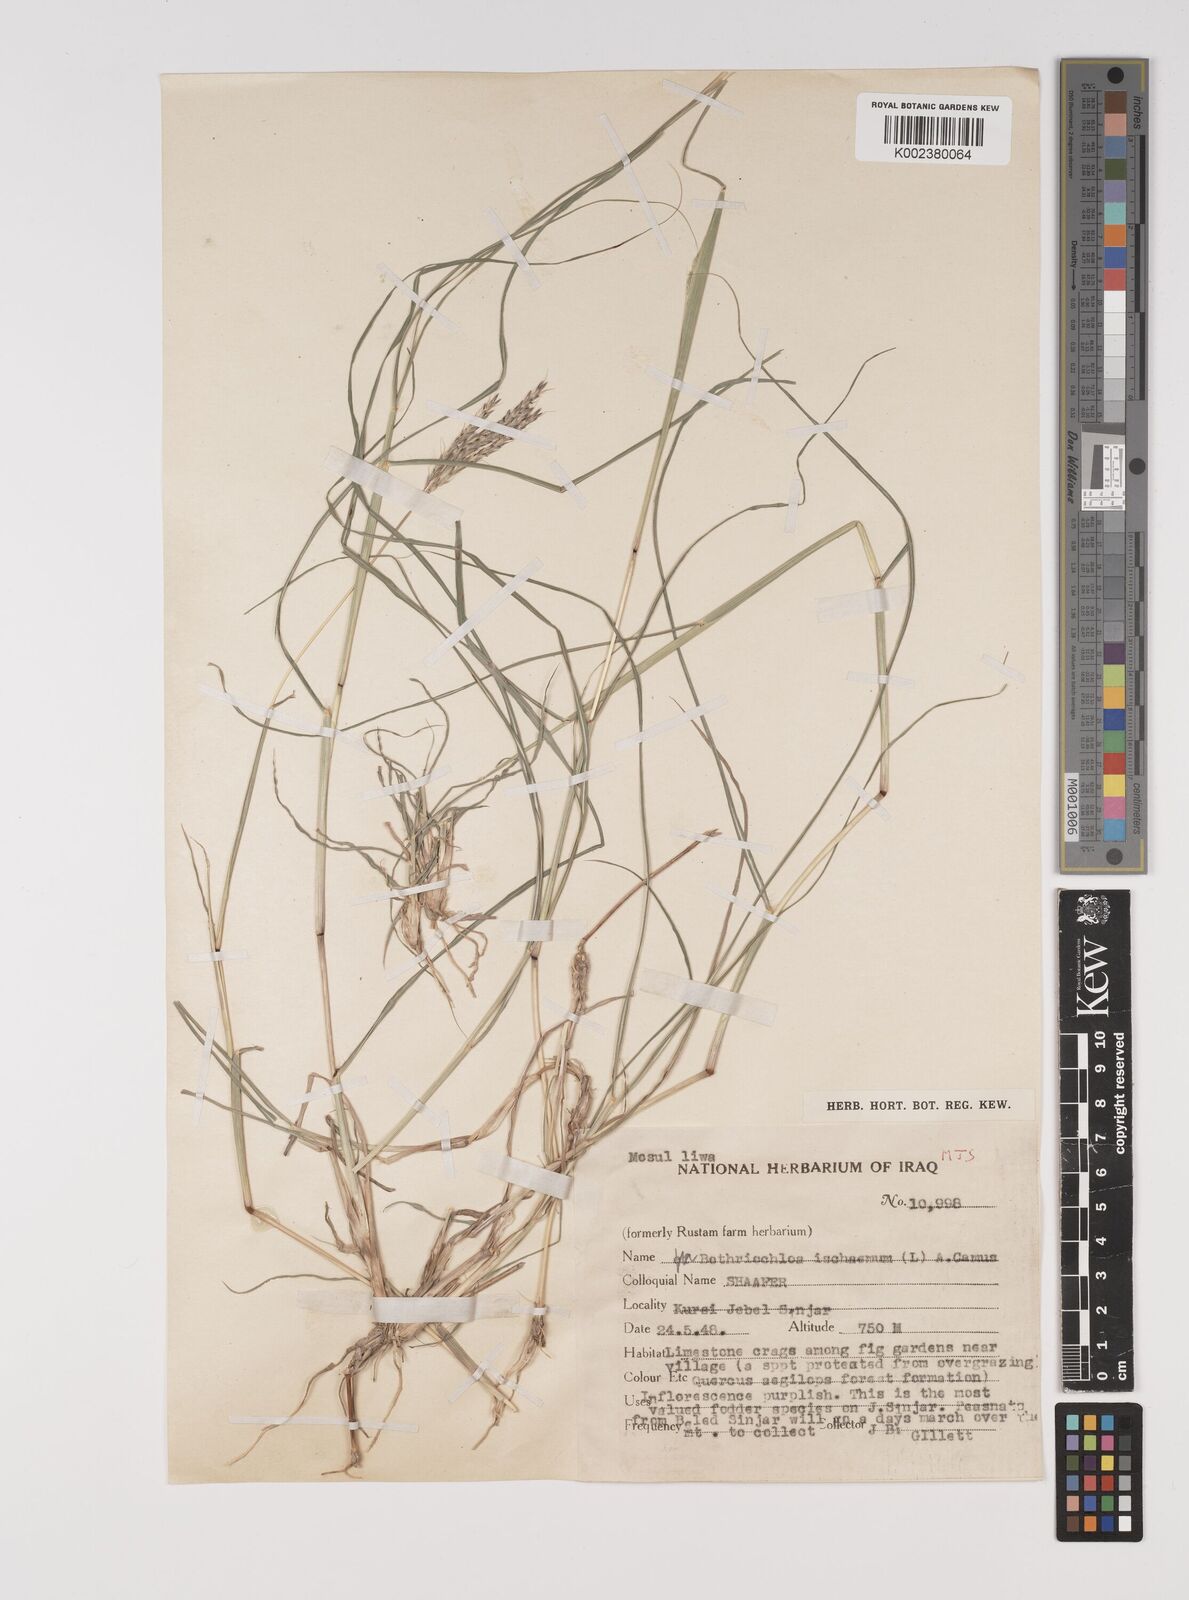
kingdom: Plantae
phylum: Tracheophyta
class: Liliopsida
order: Poales
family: Poaceae
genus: Bothriochloa
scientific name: Bothriochloa ischaemum
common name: Yellow bluestem
